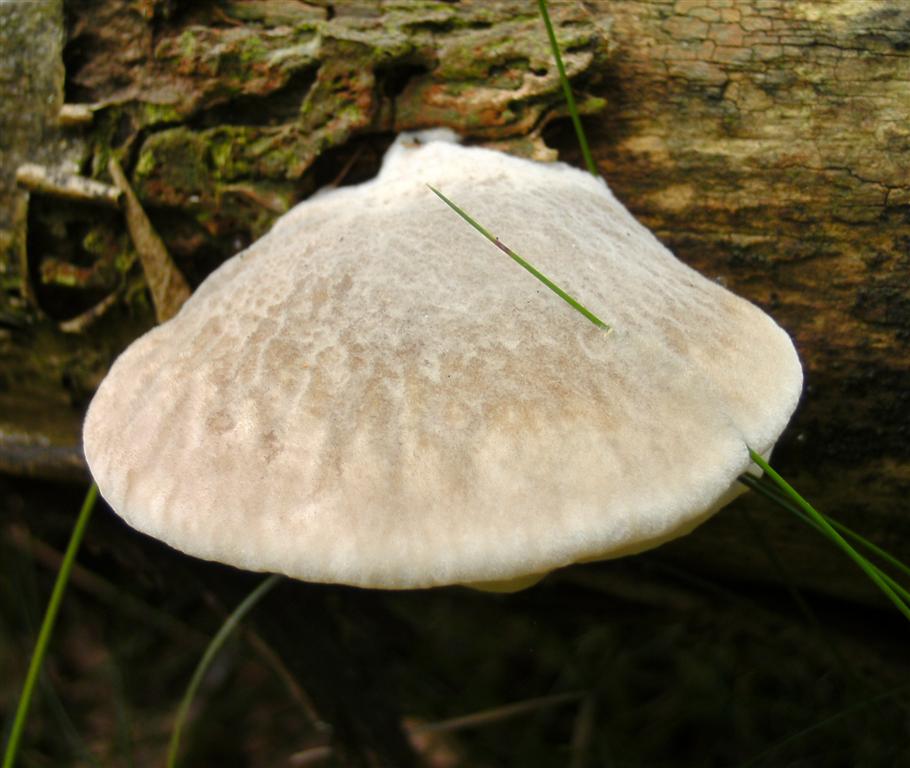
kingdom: Fungi
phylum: Basidiomycota
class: Agaricomycetes
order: Polyporales
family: Incrustoporiaceae
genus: Tyromyces
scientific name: Tyromyces lacteus
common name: mælkehvid kødporesvamp
